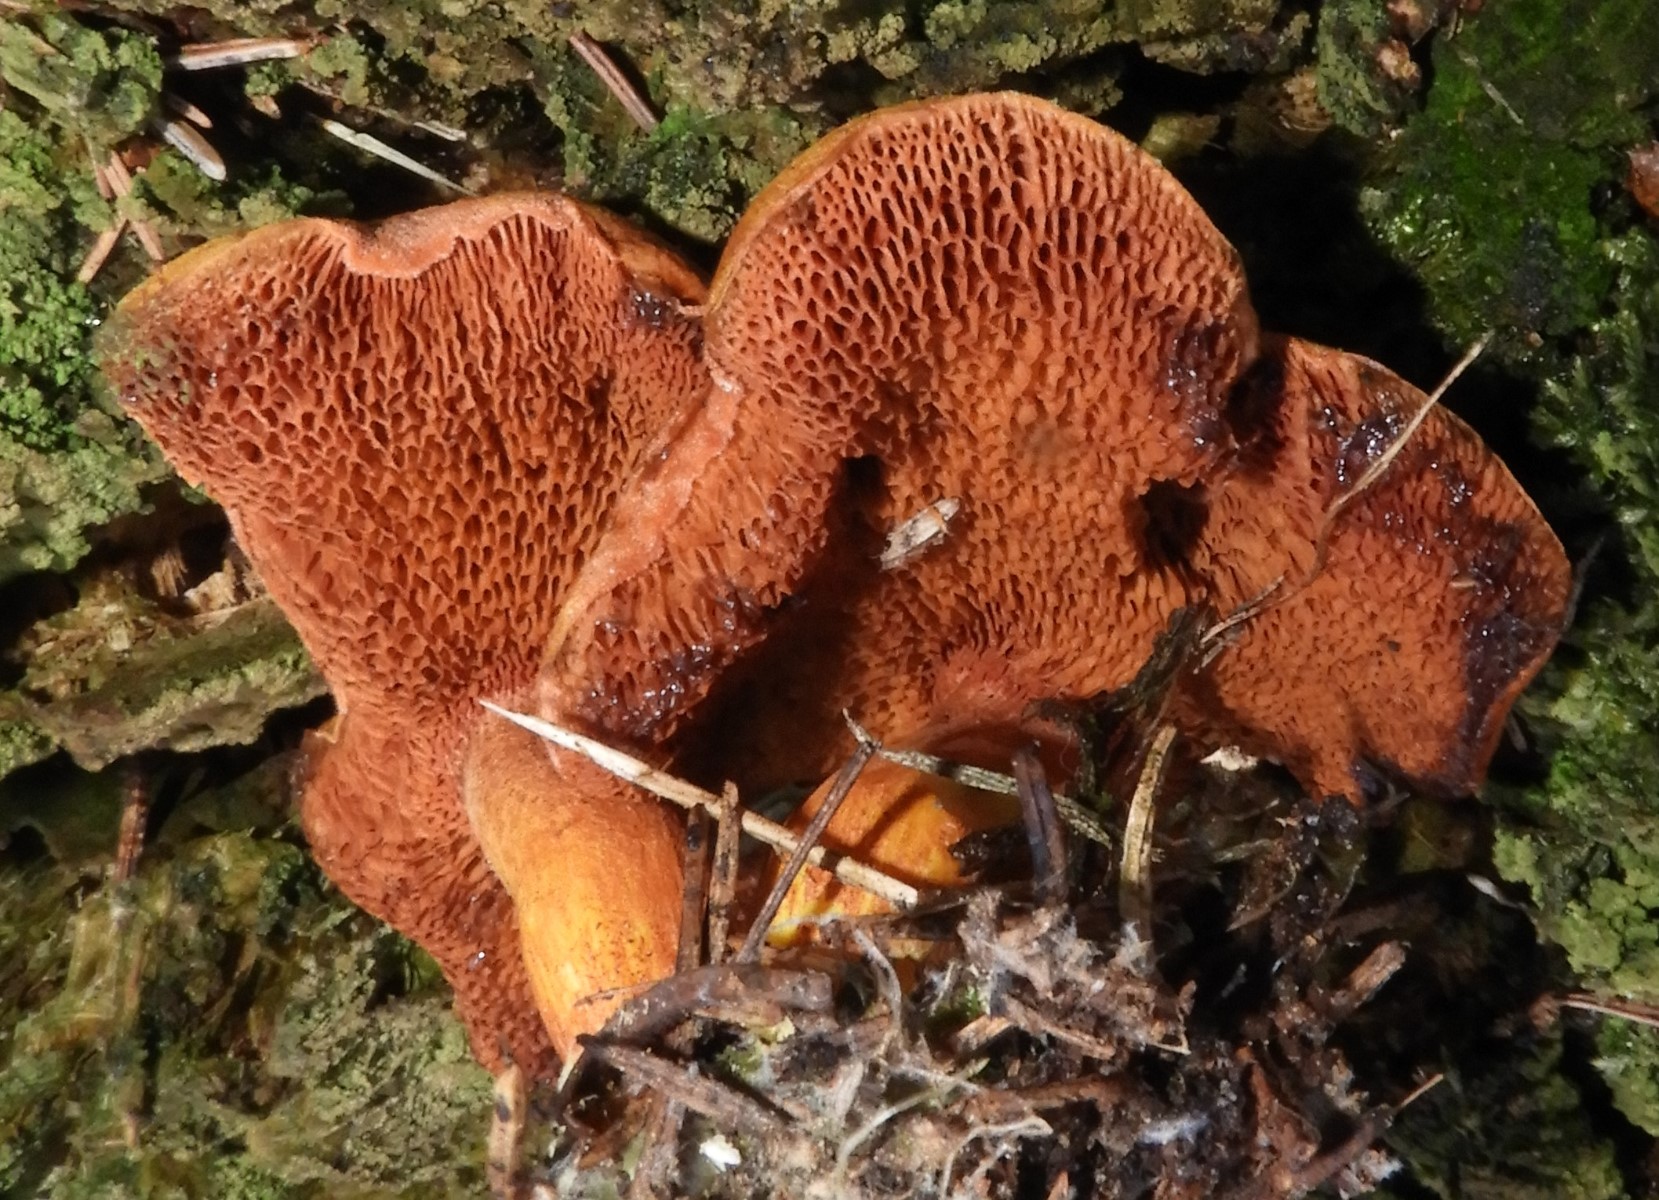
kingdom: Fungi
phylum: Basidiomycota
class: Agaricomycetes
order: Boletales
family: Boletaceae
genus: Chalciporus
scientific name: Chalciporus piperatus
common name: peberrørhat
